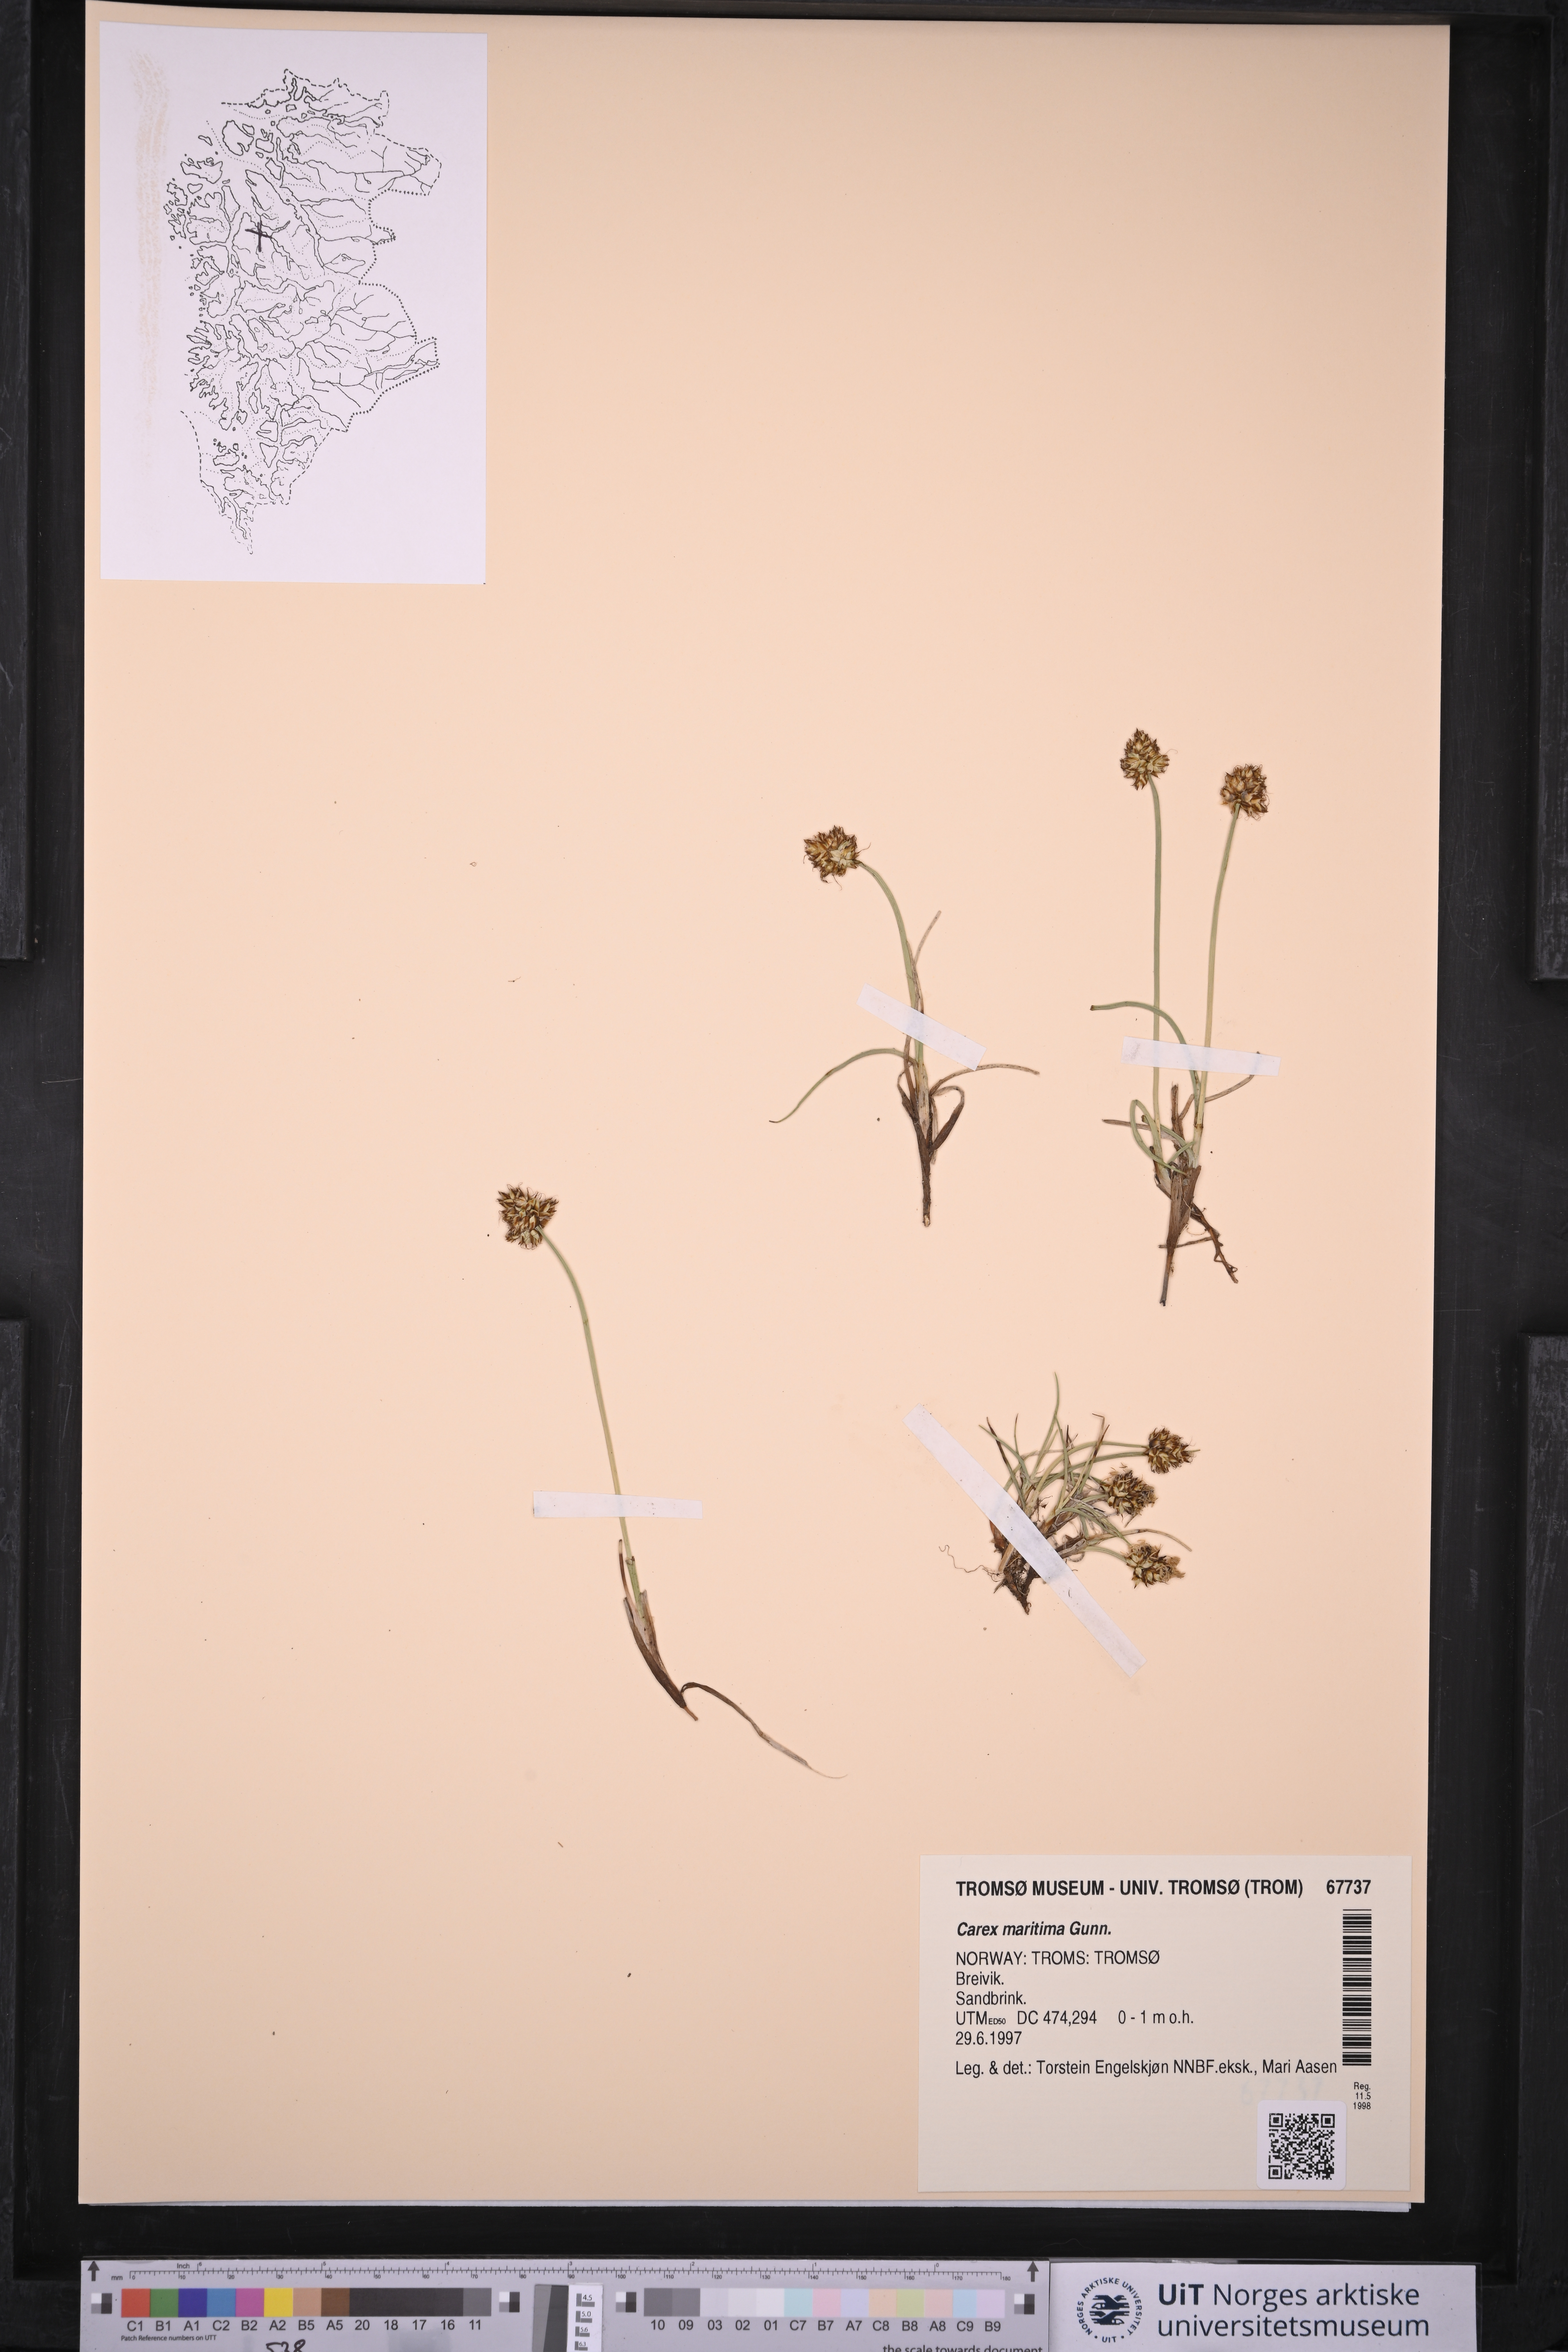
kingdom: Plantae
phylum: Tracheophyta
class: Liliopsida
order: Poales
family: Cyperaceae
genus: Carex
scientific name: Carex maritima
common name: Curved sedge
